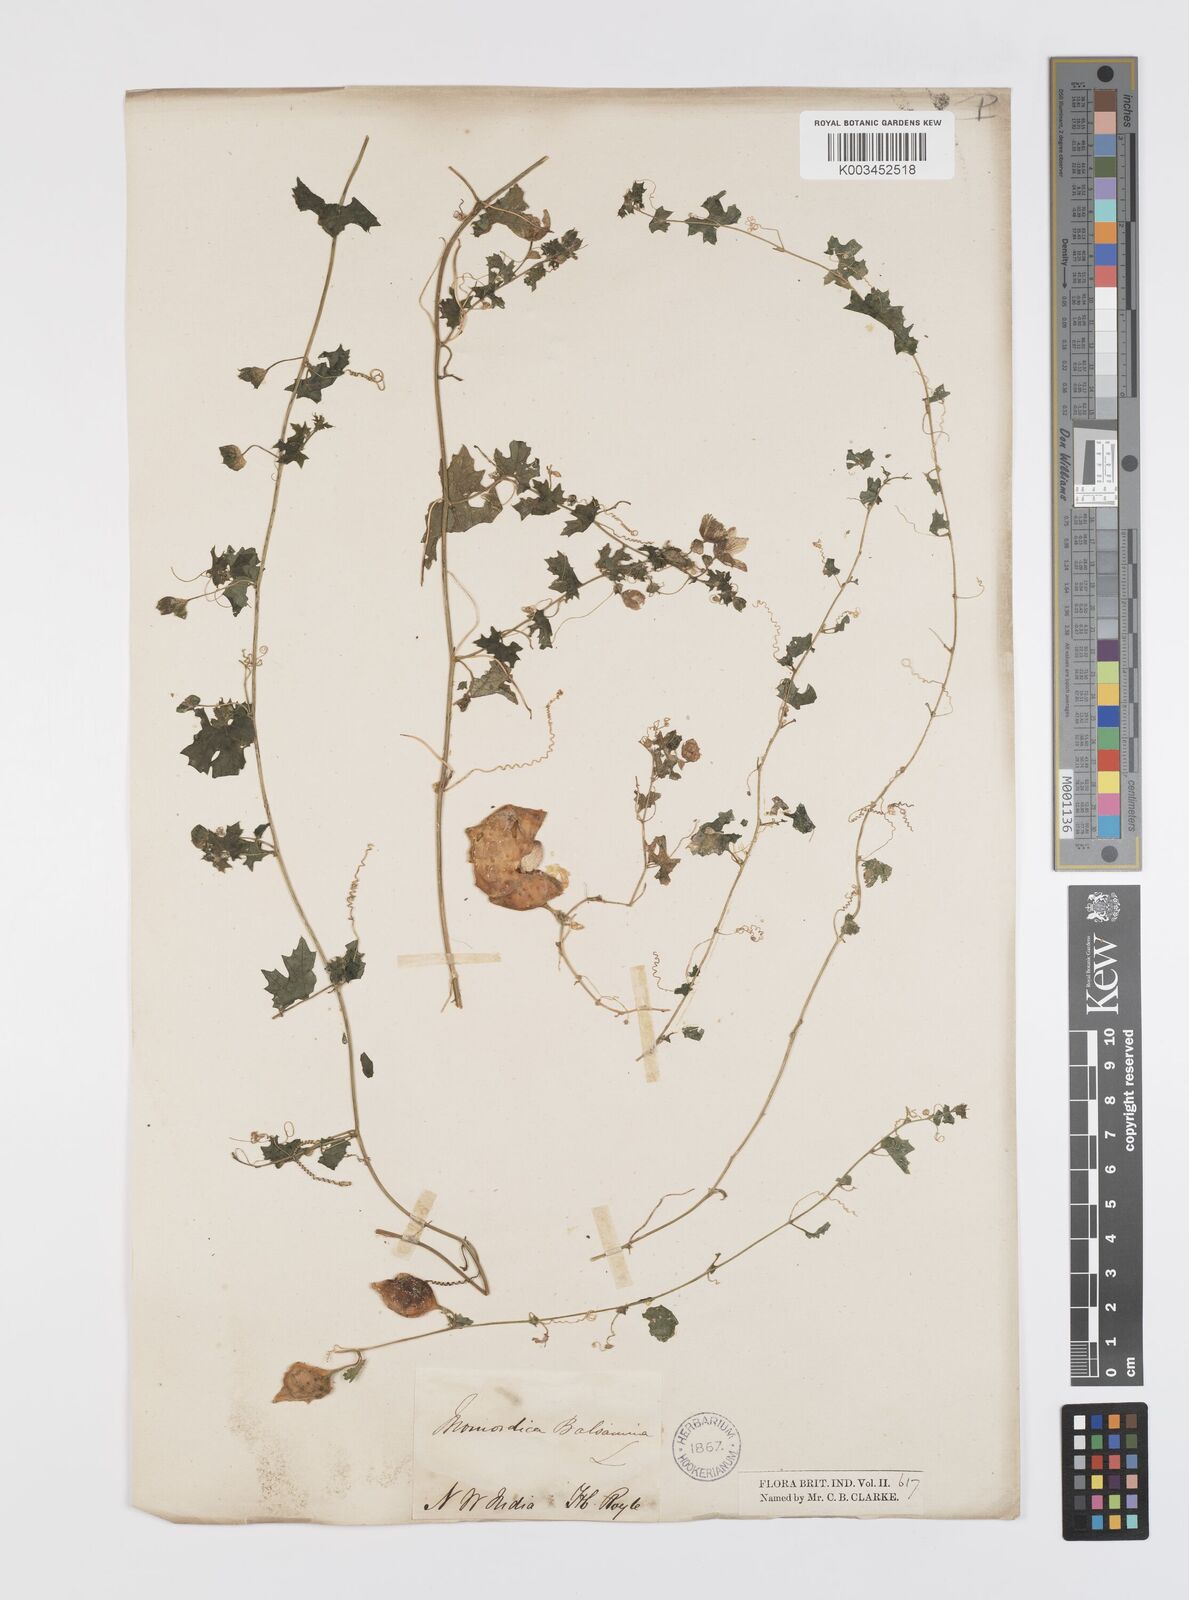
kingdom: Plantae
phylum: Tracheophyta
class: Magnoliopsida
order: Cucurbitales
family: Cucurbitaceae
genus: Momordica
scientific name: Momordica balsamina
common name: Southern balsampear
